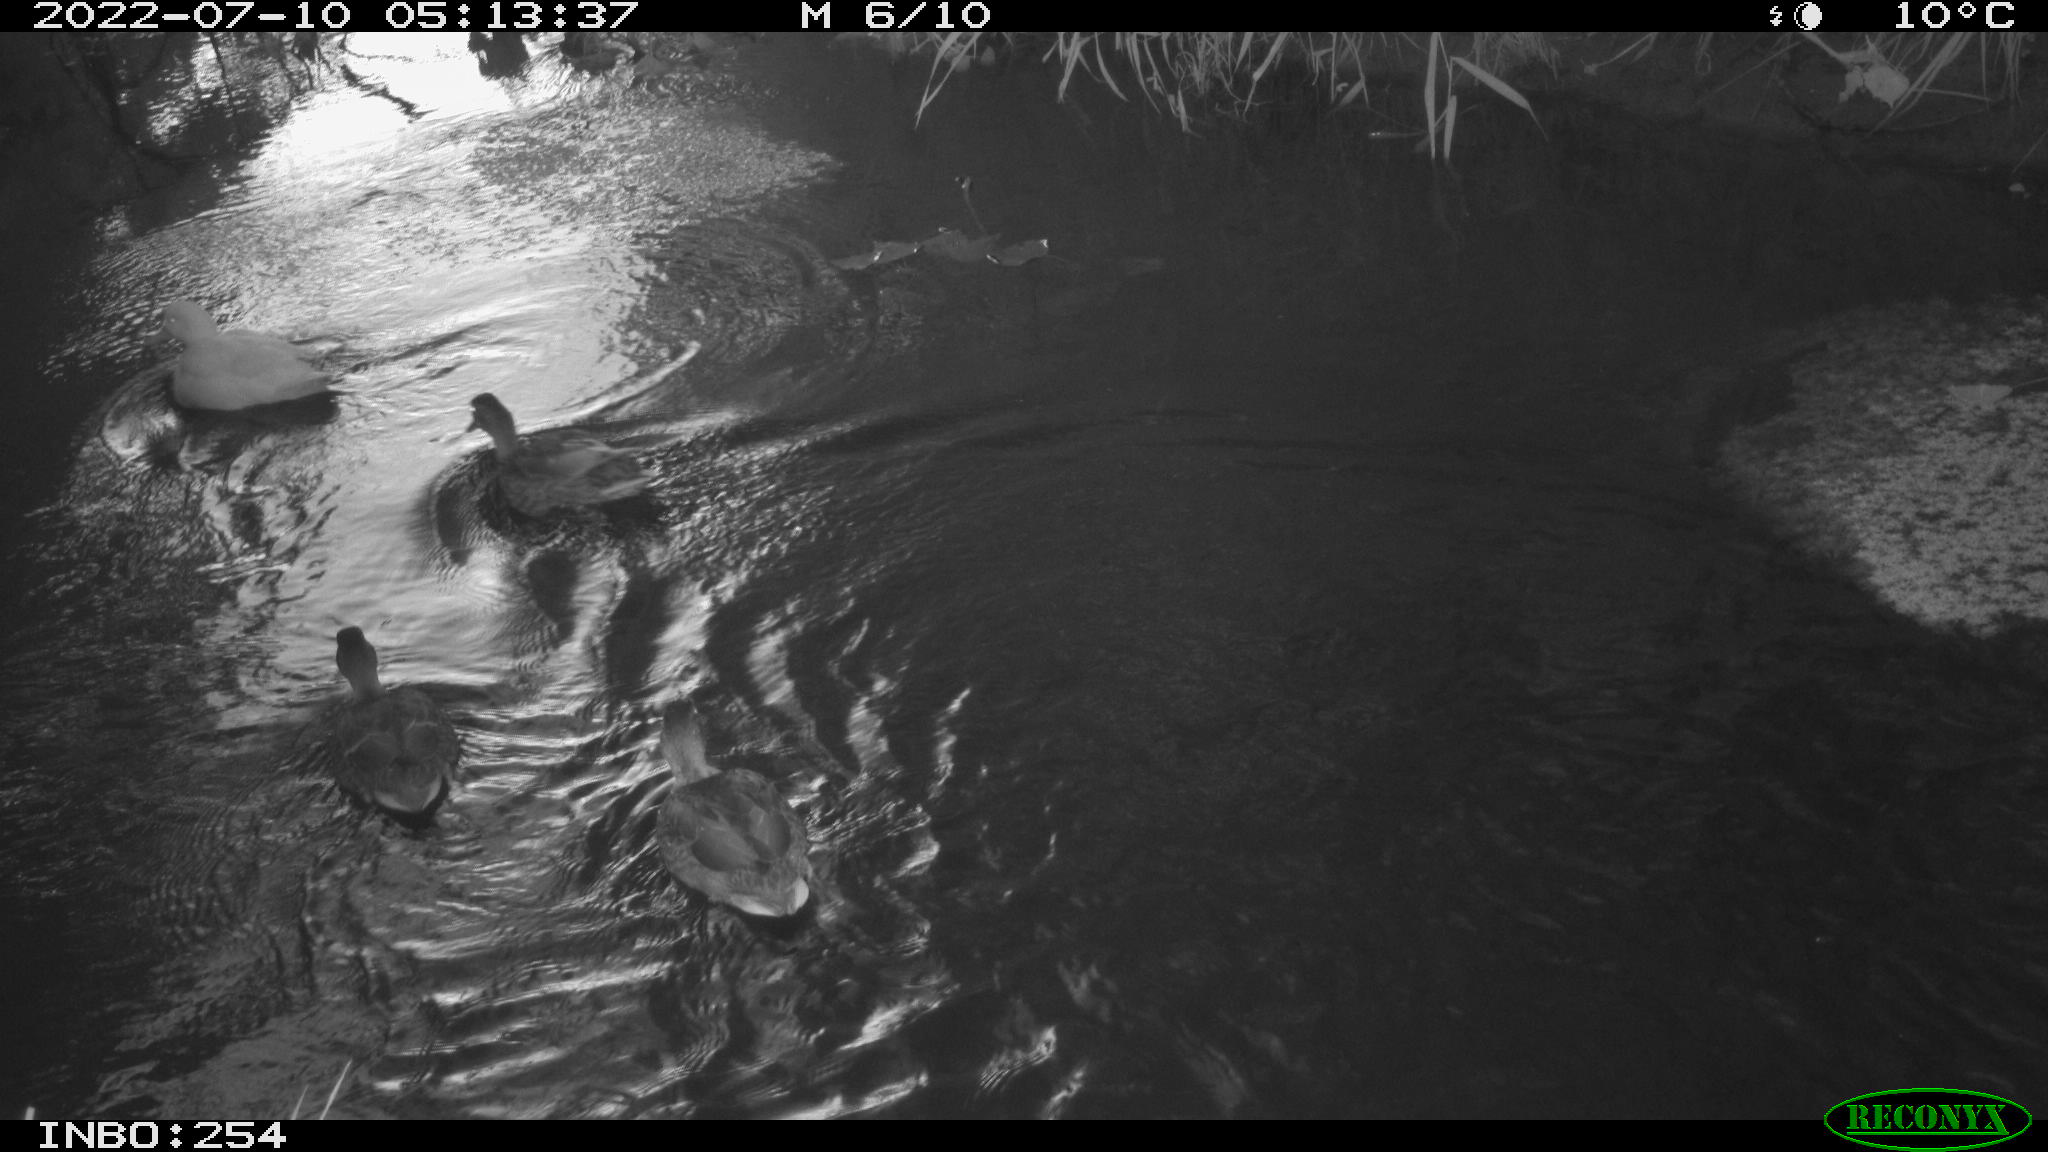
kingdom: Animalia
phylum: Chordata
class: Aves
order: Anseriformes
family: Anatidae
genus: Anas
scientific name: Anas platyrhynchos
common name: Mallard
